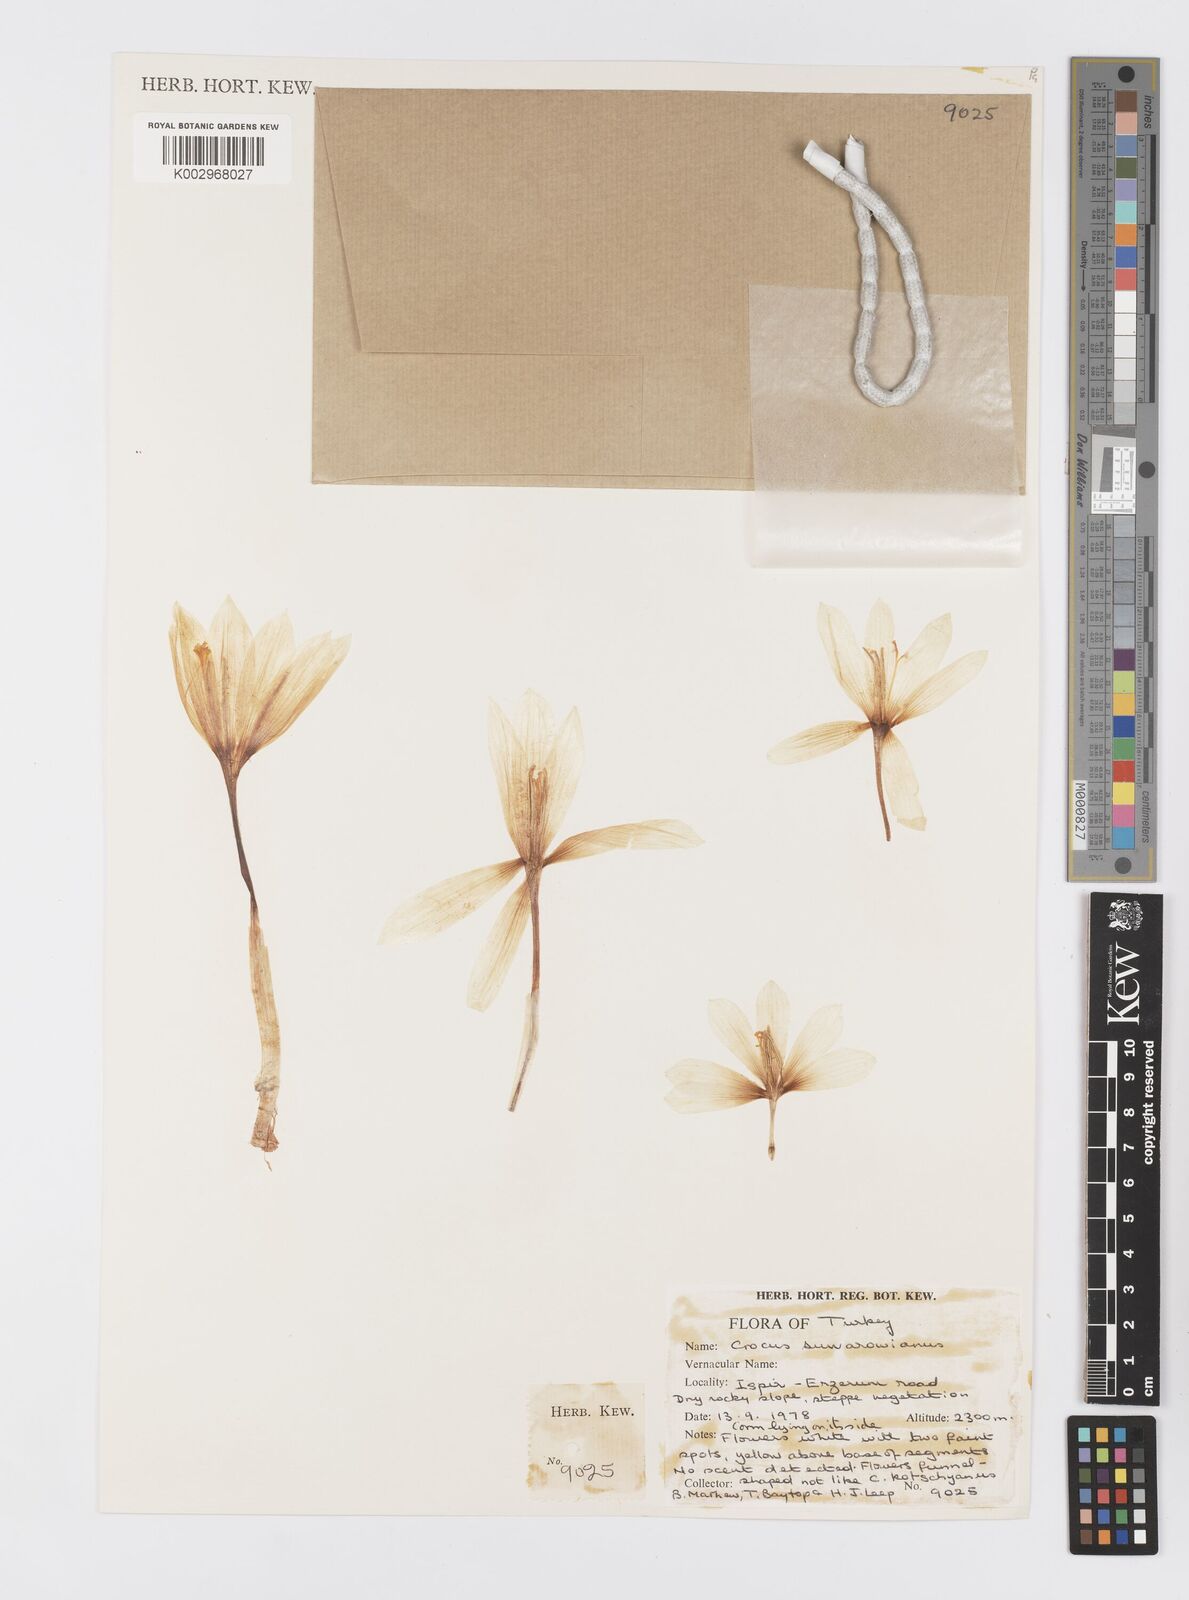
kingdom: Plantae
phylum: Tracheophyta
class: Liliopsida
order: Asparagales
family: Iridaceae
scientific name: Iridaceae
